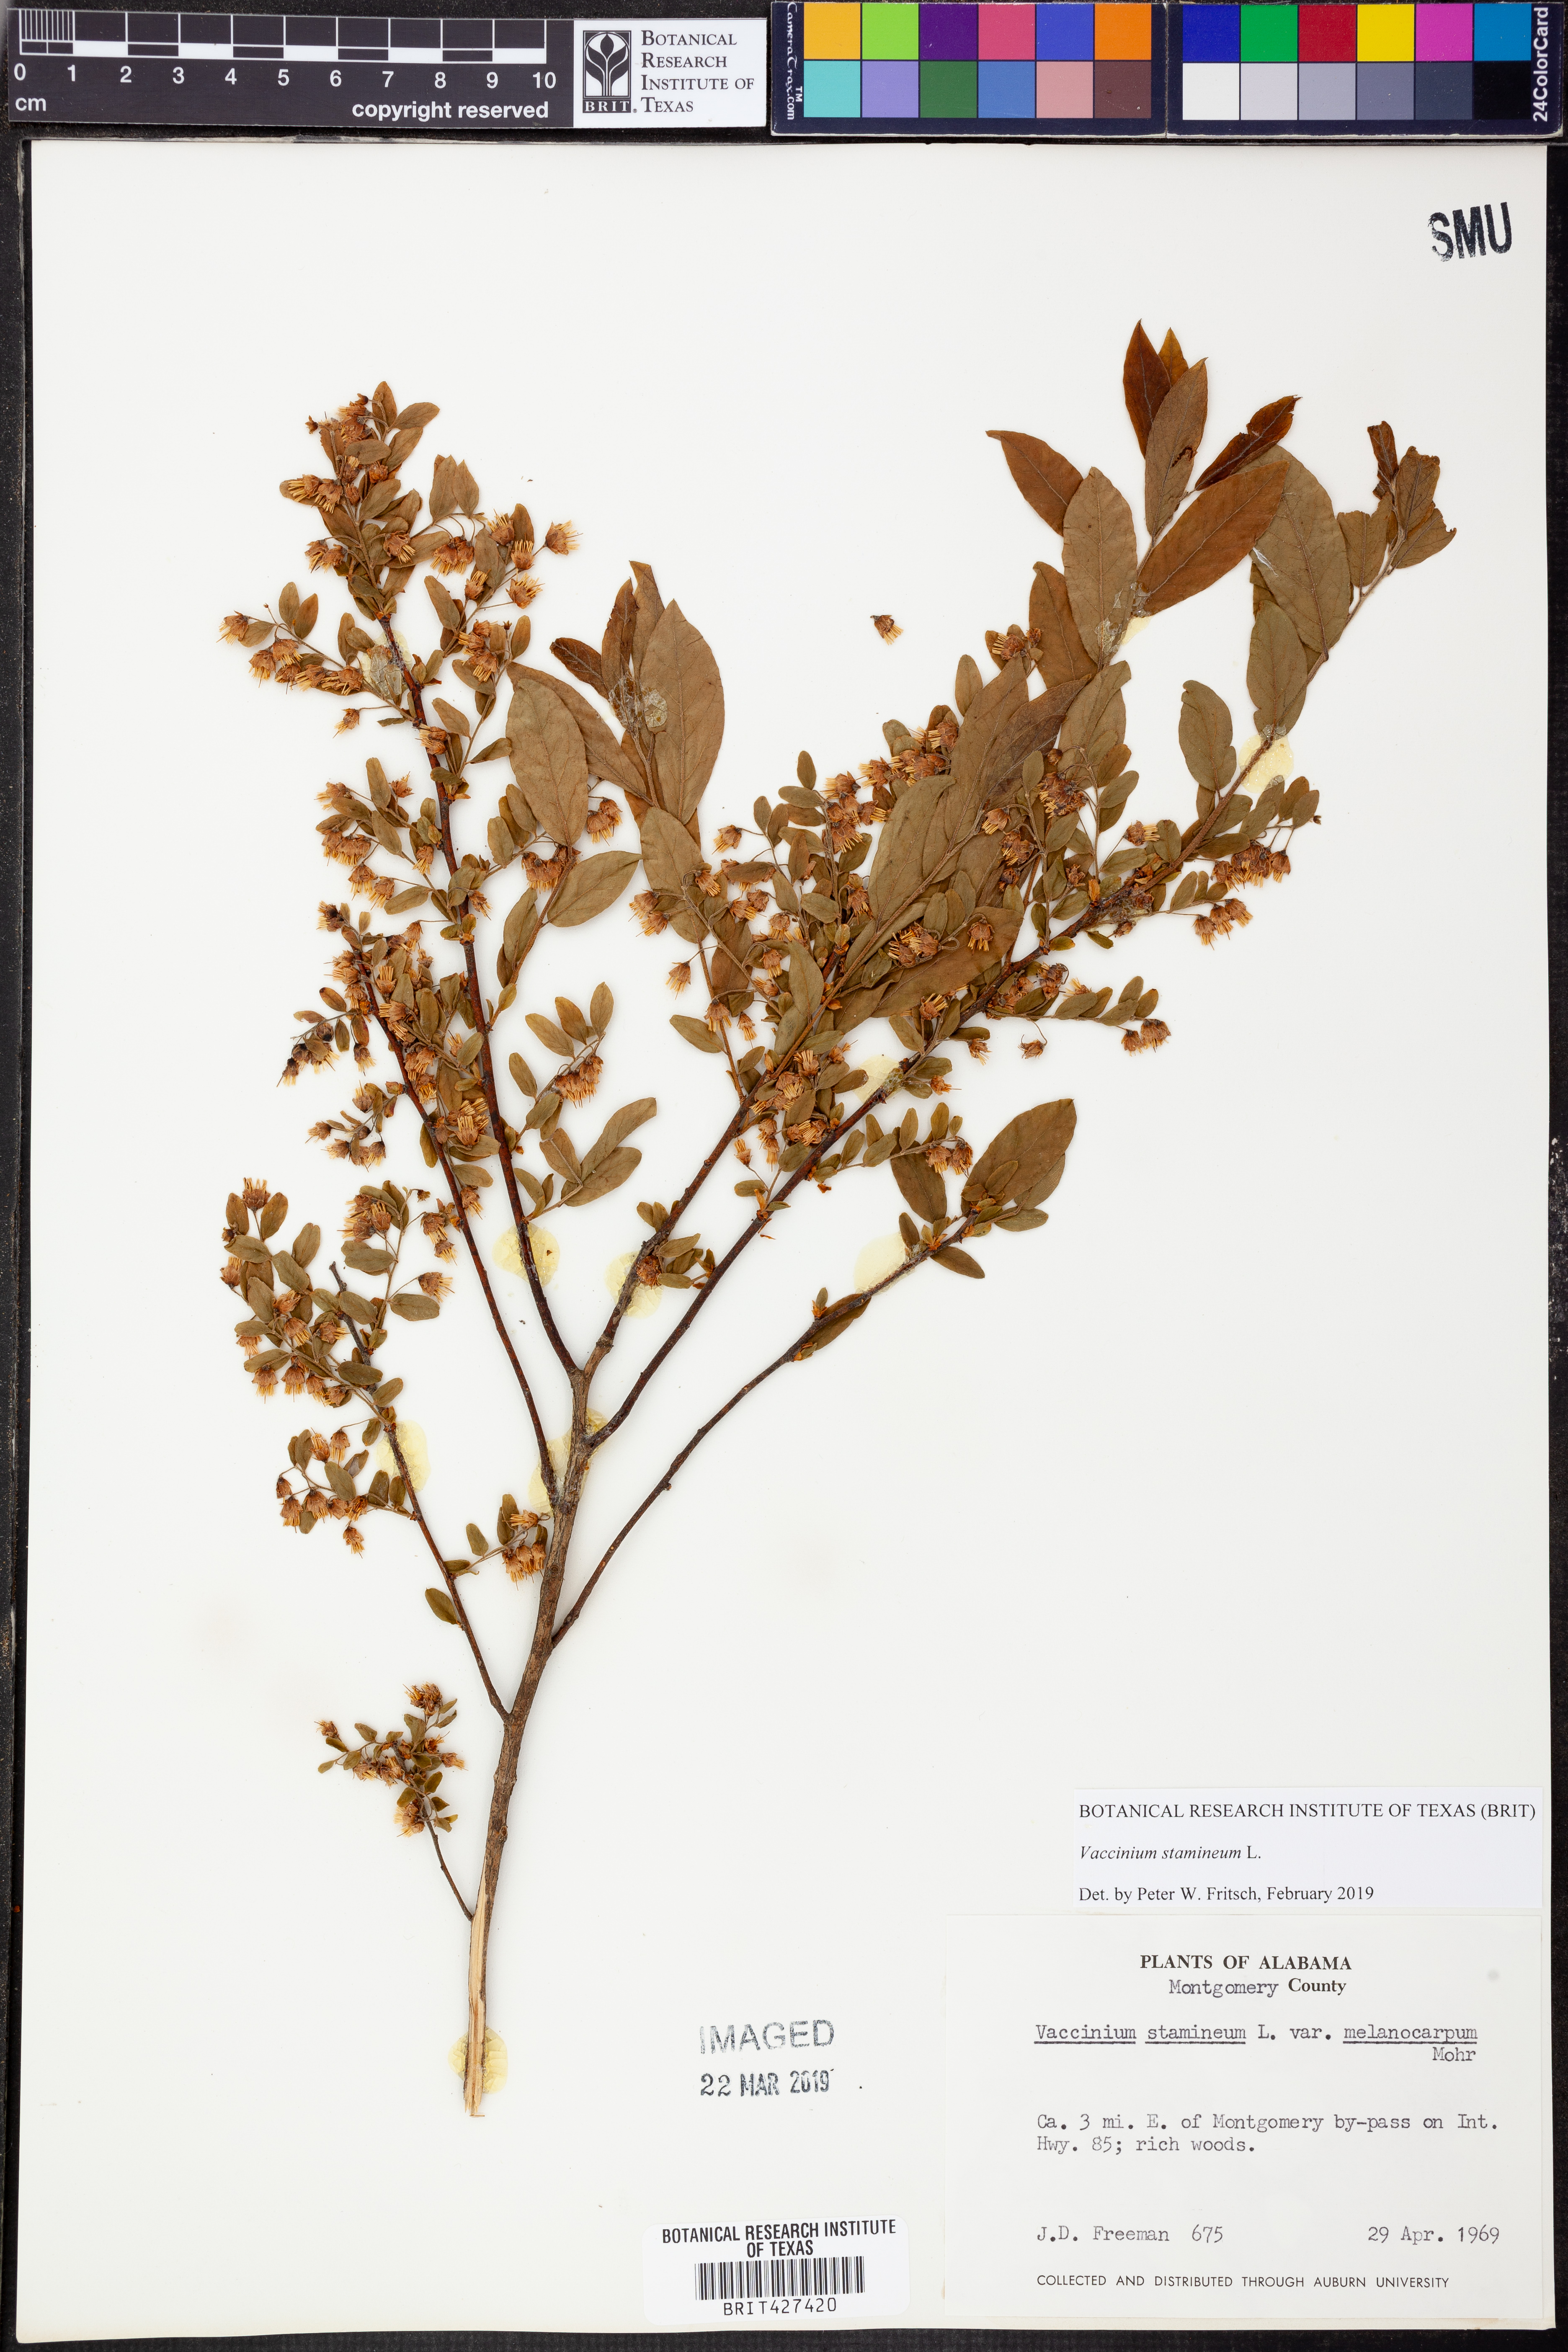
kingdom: Plantae
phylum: Tracheophyta
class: Magnoliopsida
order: Ericales
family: Ericaceae
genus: Vaccinium
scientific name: Vaccinium stamineum
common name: Deerberry
